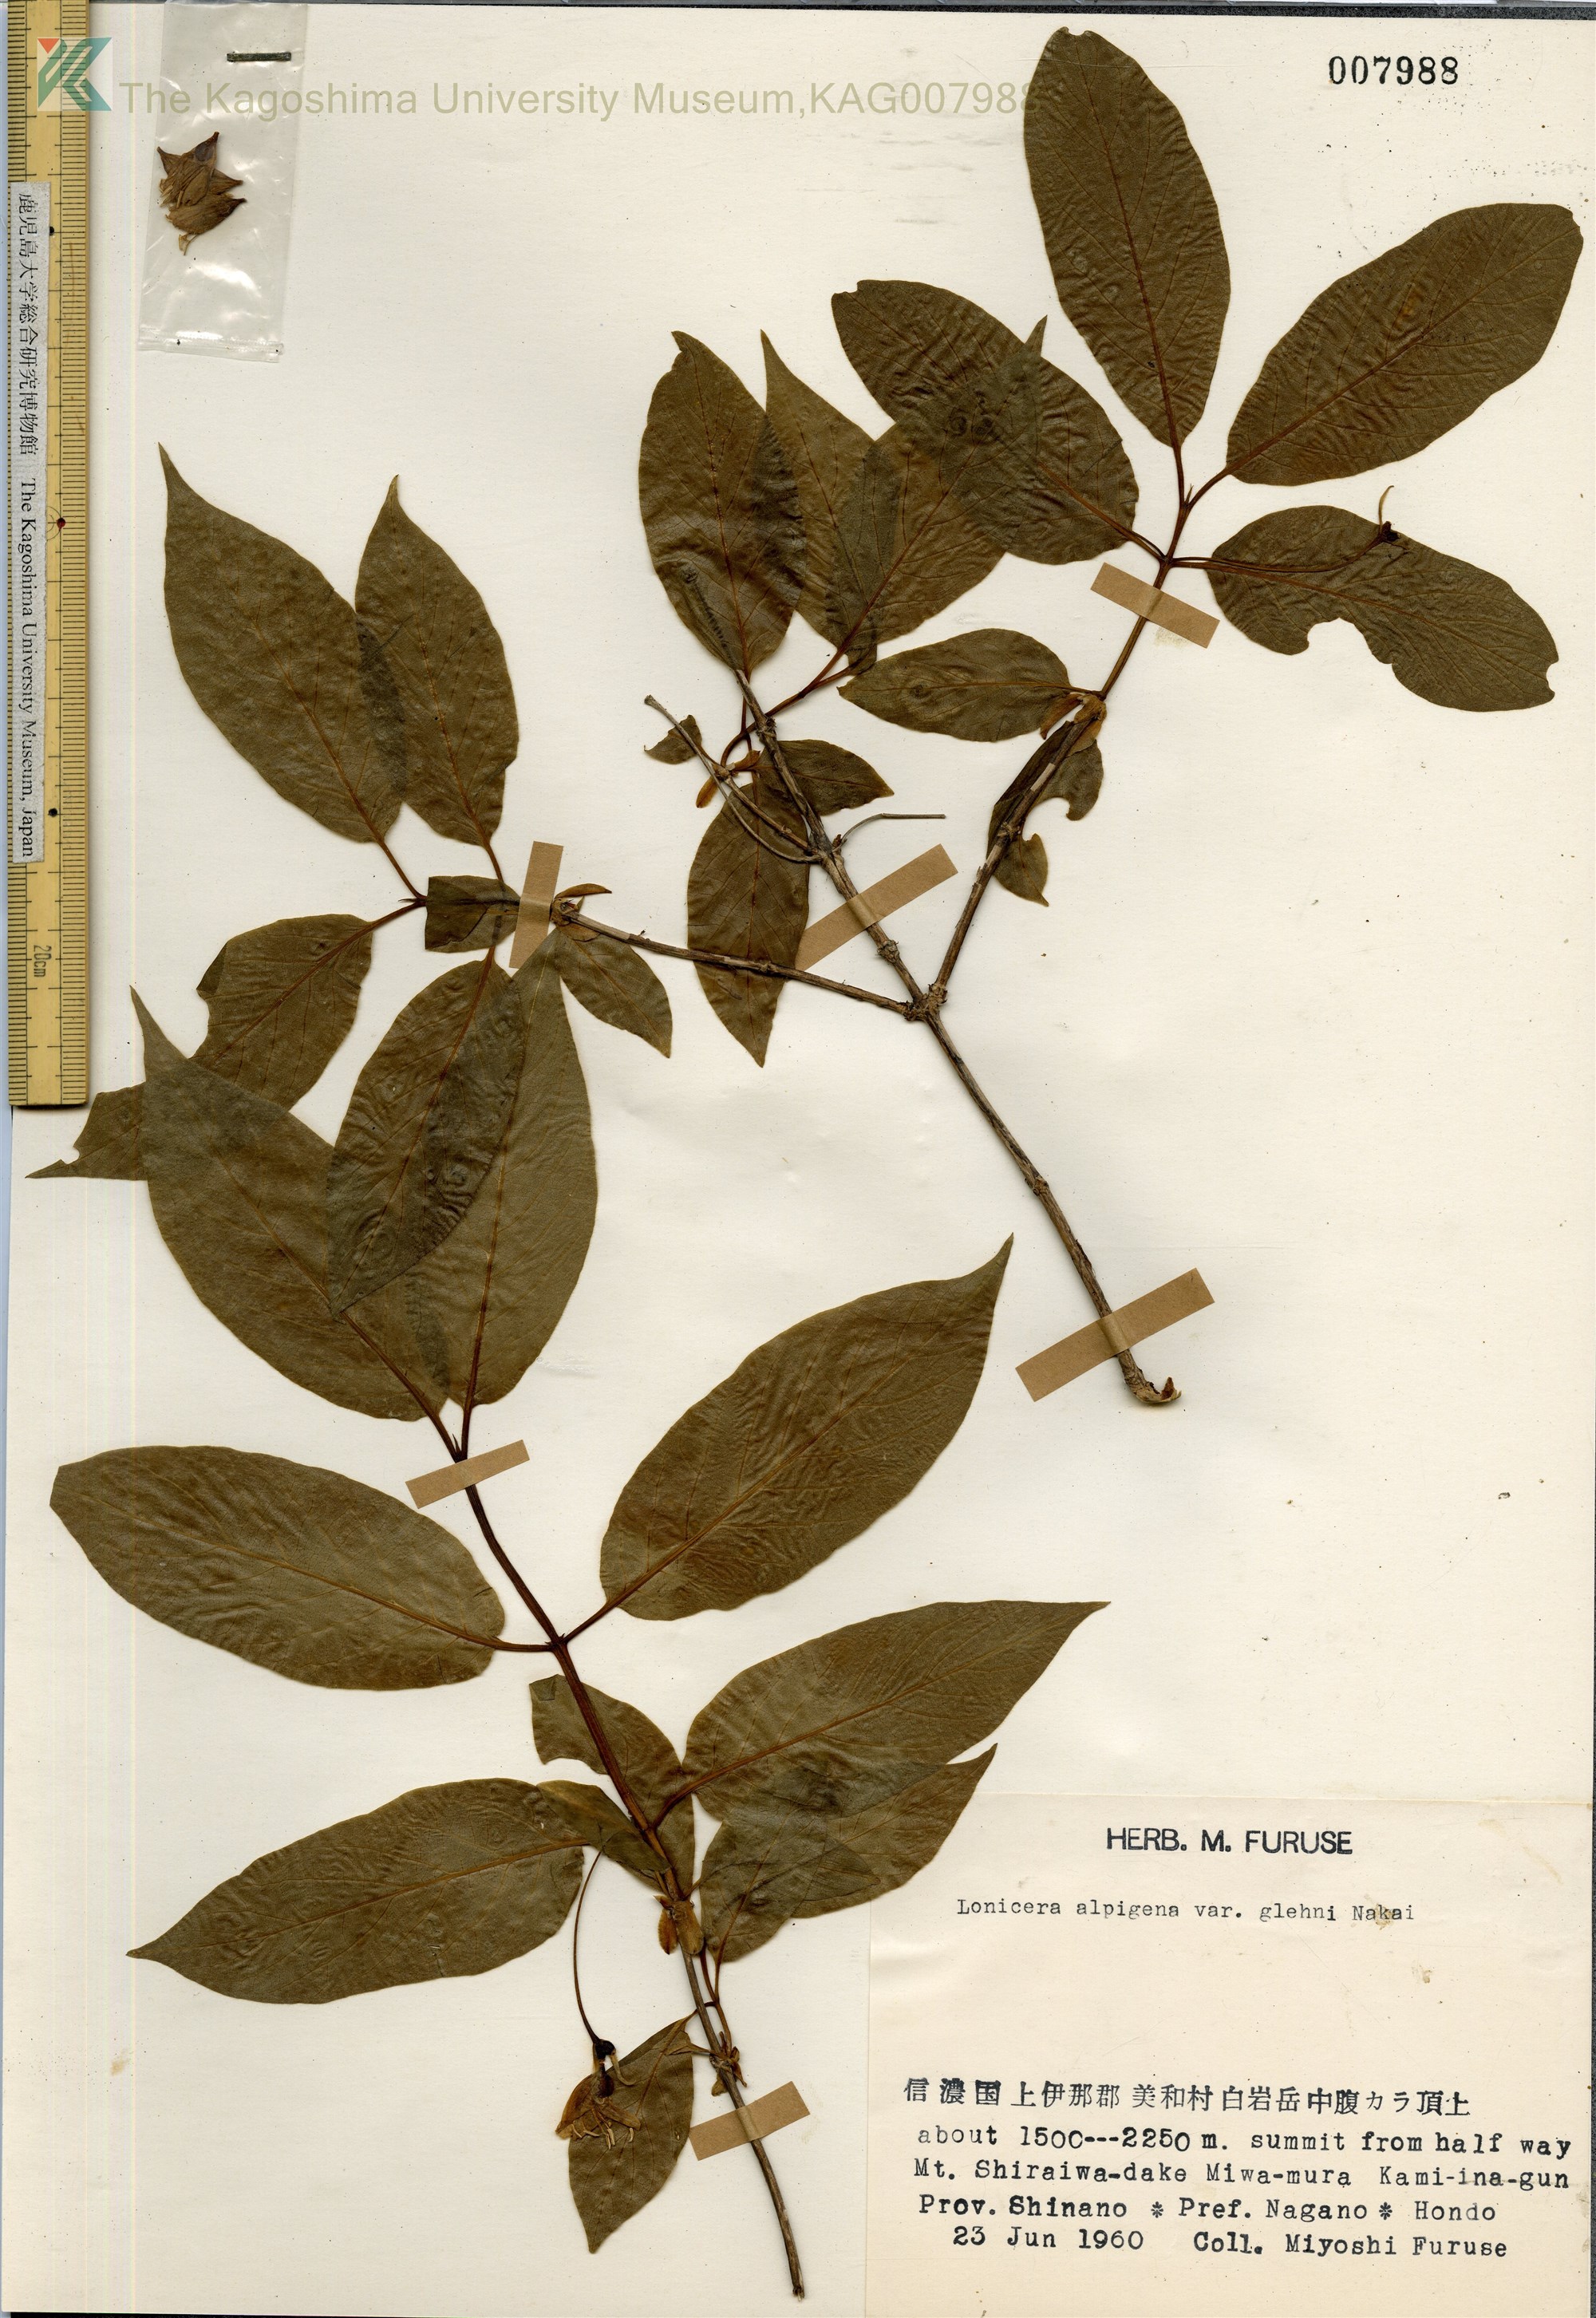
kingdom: Plantae
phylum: Tracheophyta
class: Magnoliopsida
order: Dipsacales
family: Caprifoliaceae
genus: Lonicera
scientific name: Lonicera alpigena
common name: Alpine honeysuckle
